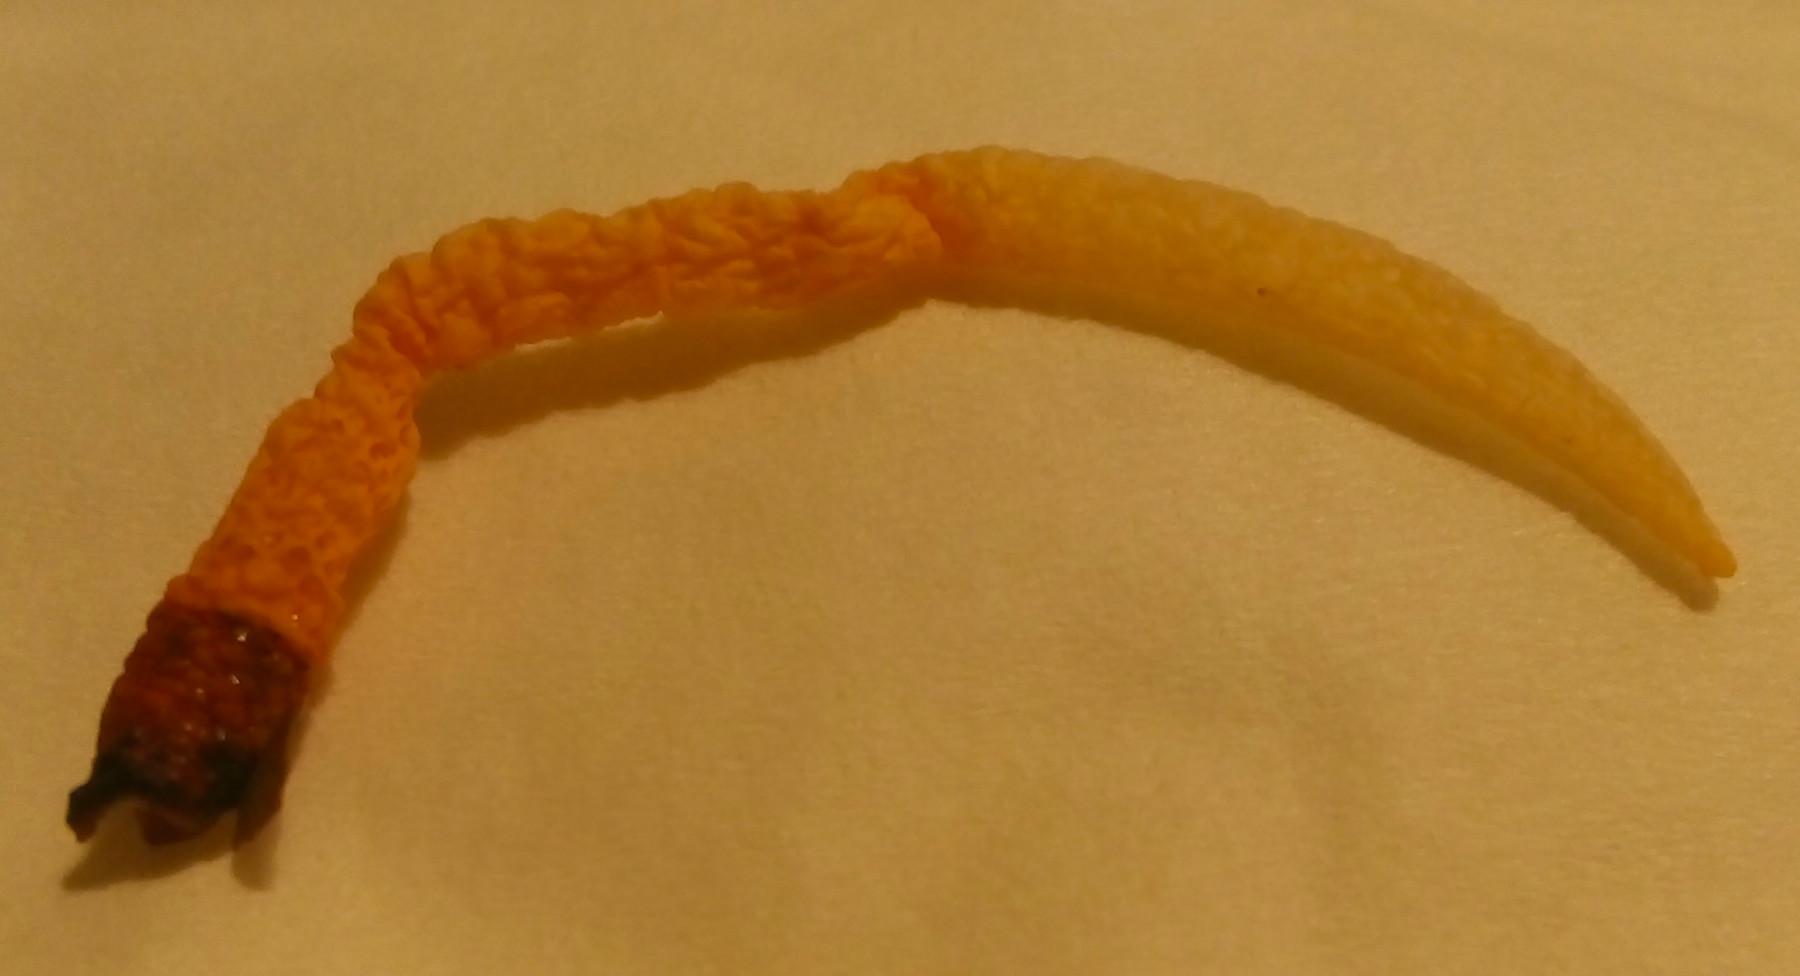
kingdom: Fungi
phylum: Basidiomycota
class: Agaricomycetes
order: Phallales
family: Phallaceae
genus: Mutinus
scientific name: Mutinus caninus
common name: hunde-stinksvamp
